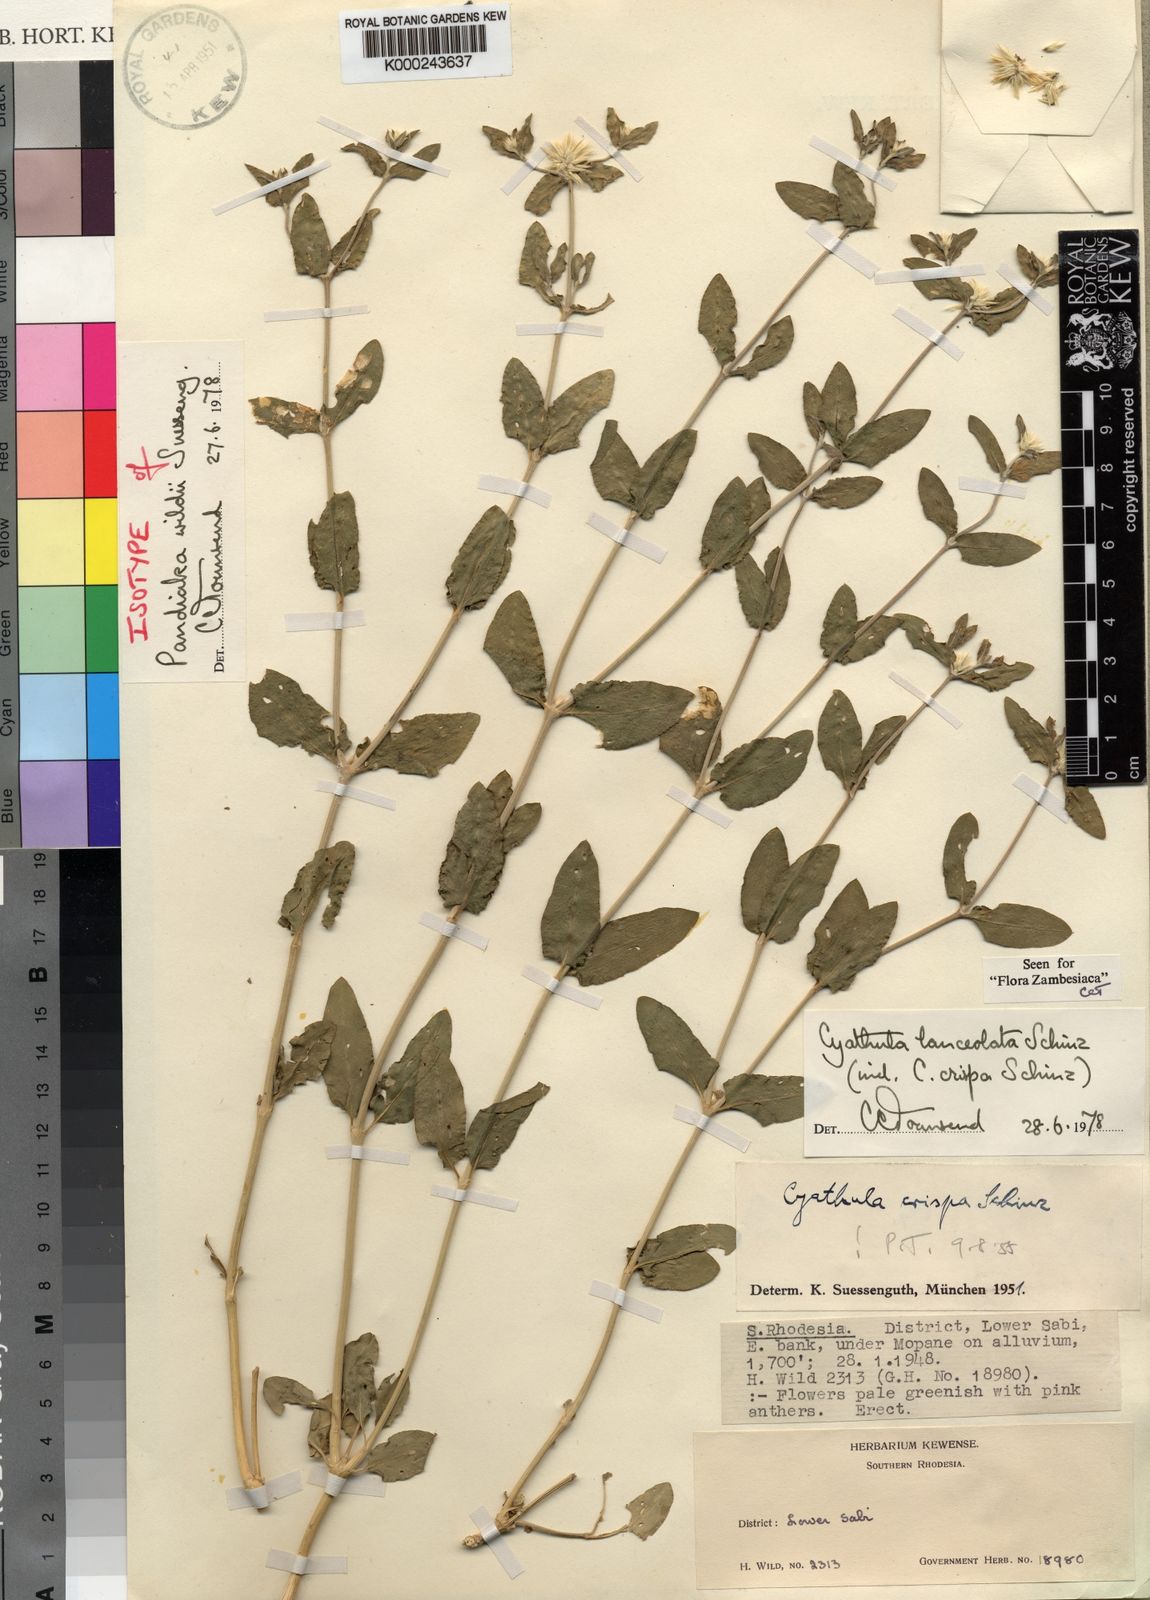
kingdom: Plantae
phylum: Tracheophyta
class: Magnoliopsida
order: Caryophyllales
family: Amaranthaceae
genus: Cyathula
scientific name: Cyathula lanceolata
